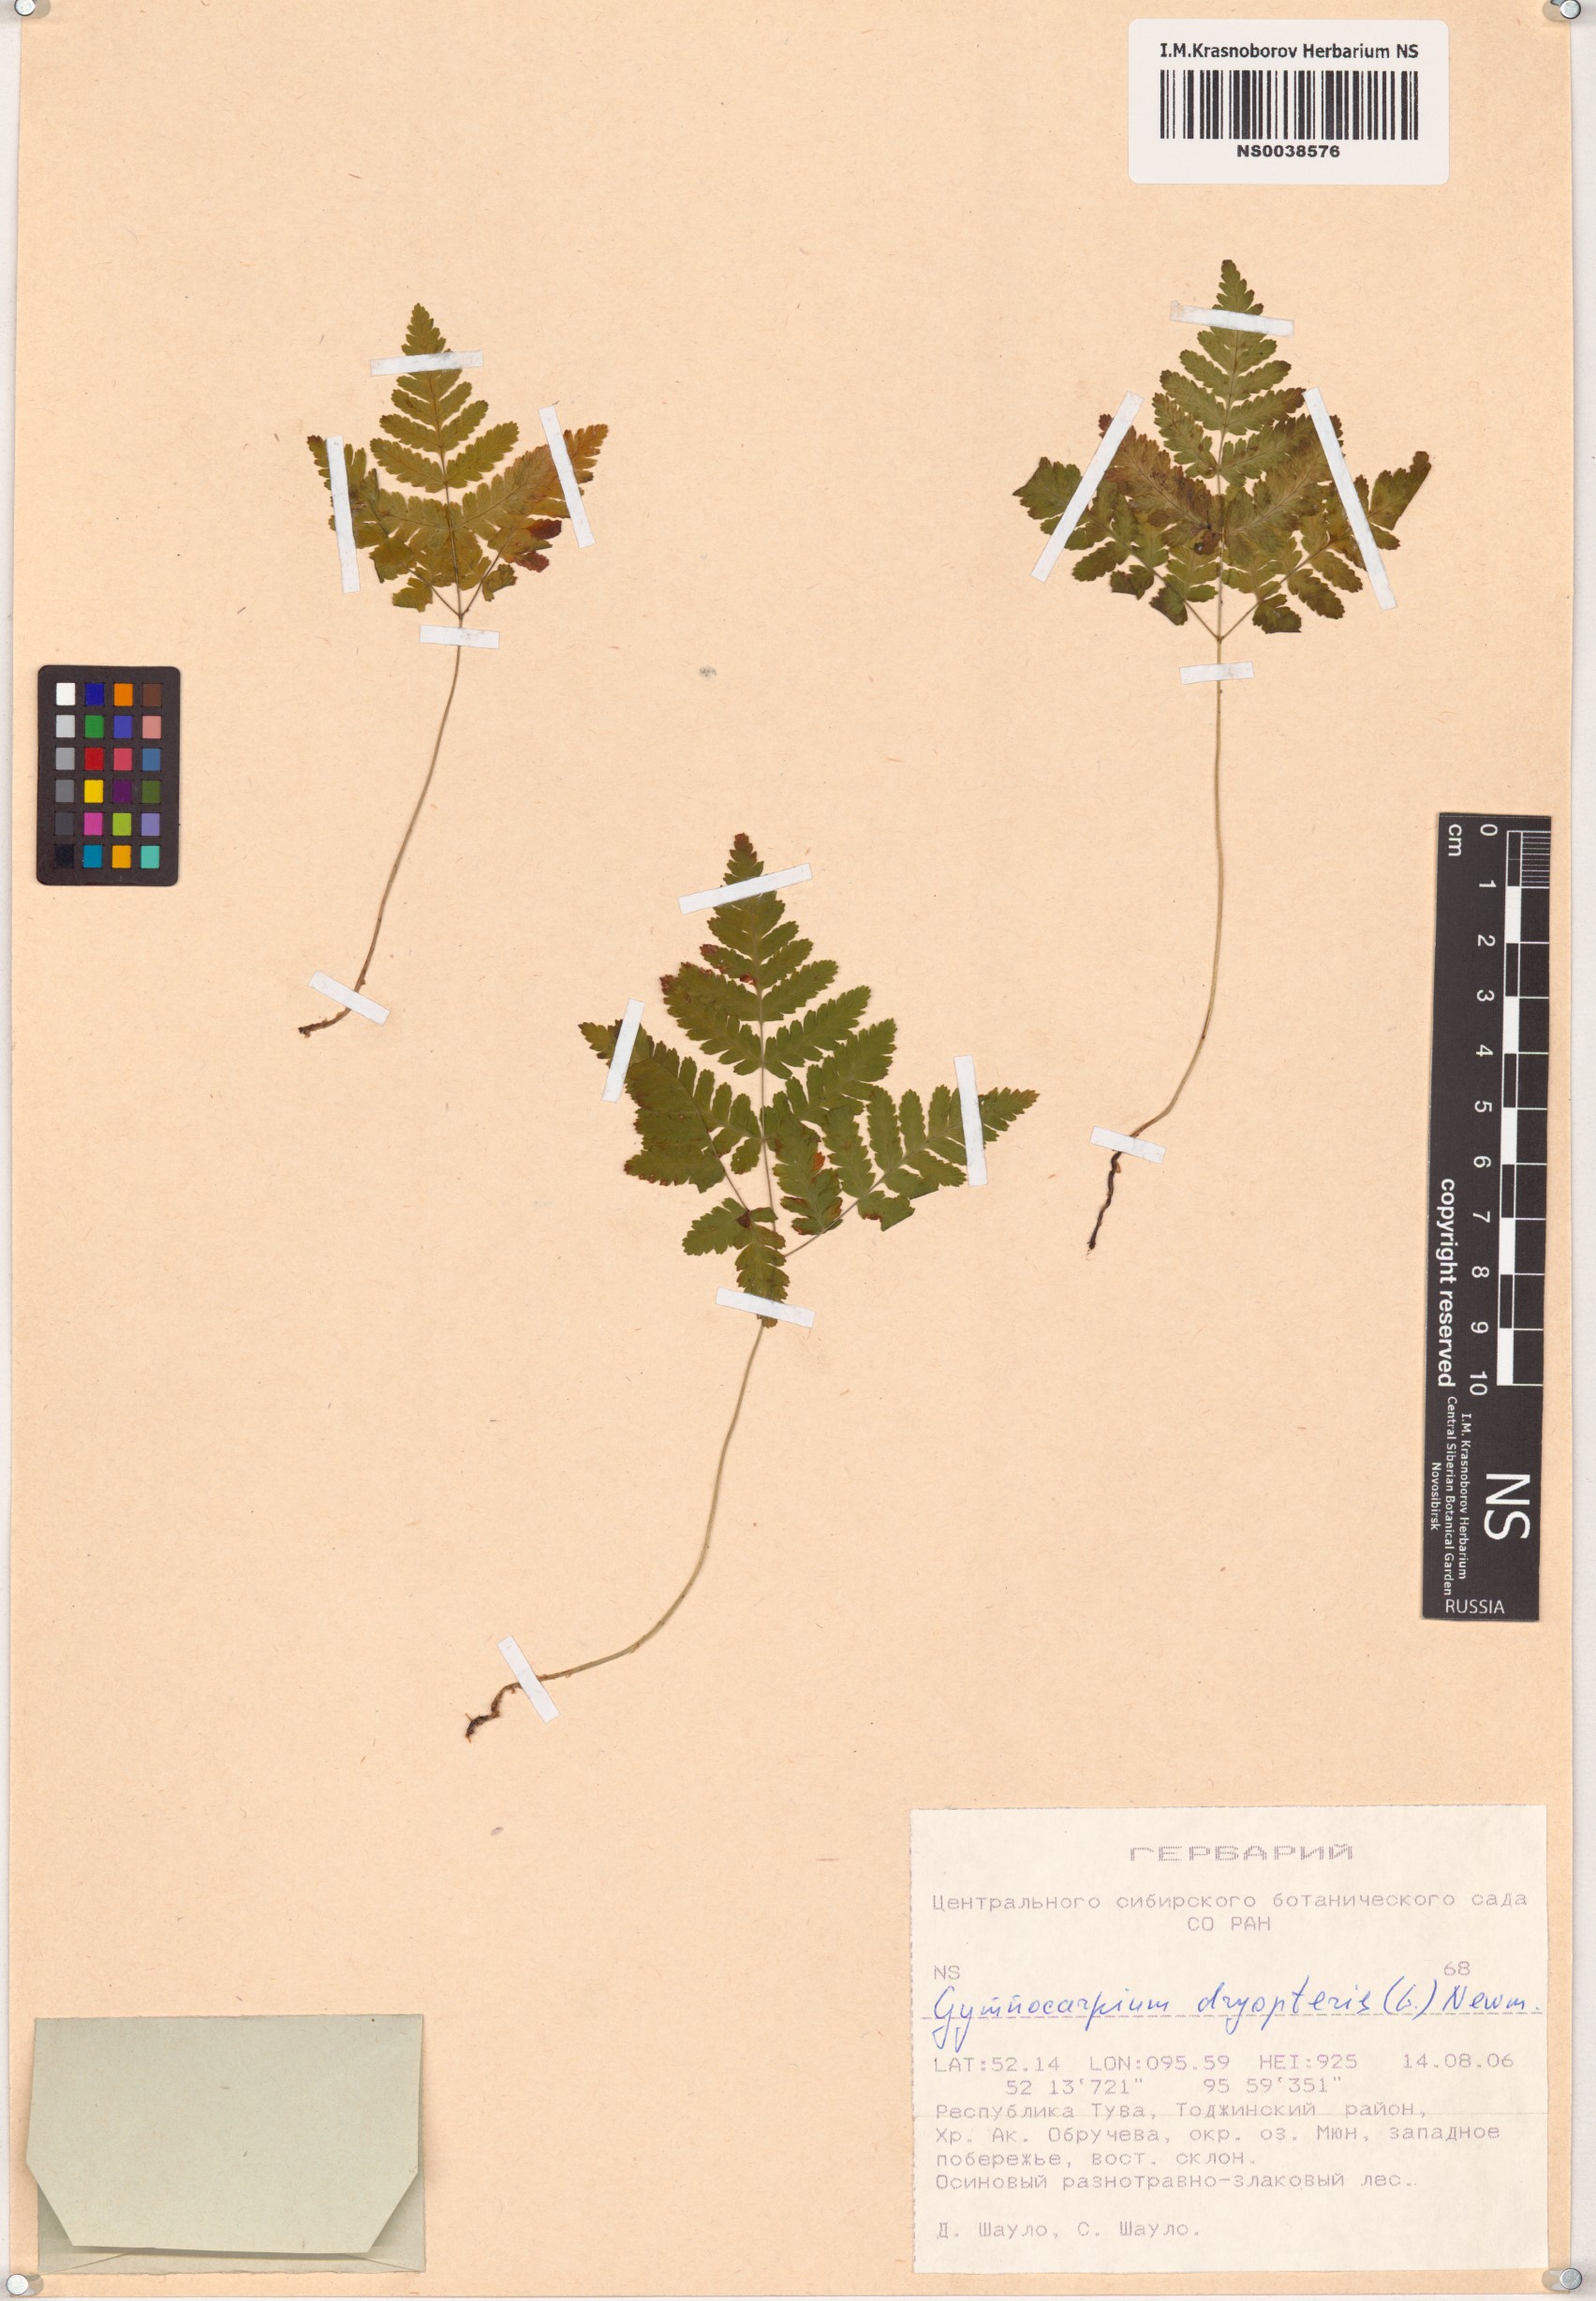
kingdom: Plantae
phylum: Tracheophyta
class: Polypodiopsida
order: Polypodiales
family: Cystopteridaceae
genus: Gymnocarpium
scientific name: Gymnocarpium dryopteris
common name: Oak fern
